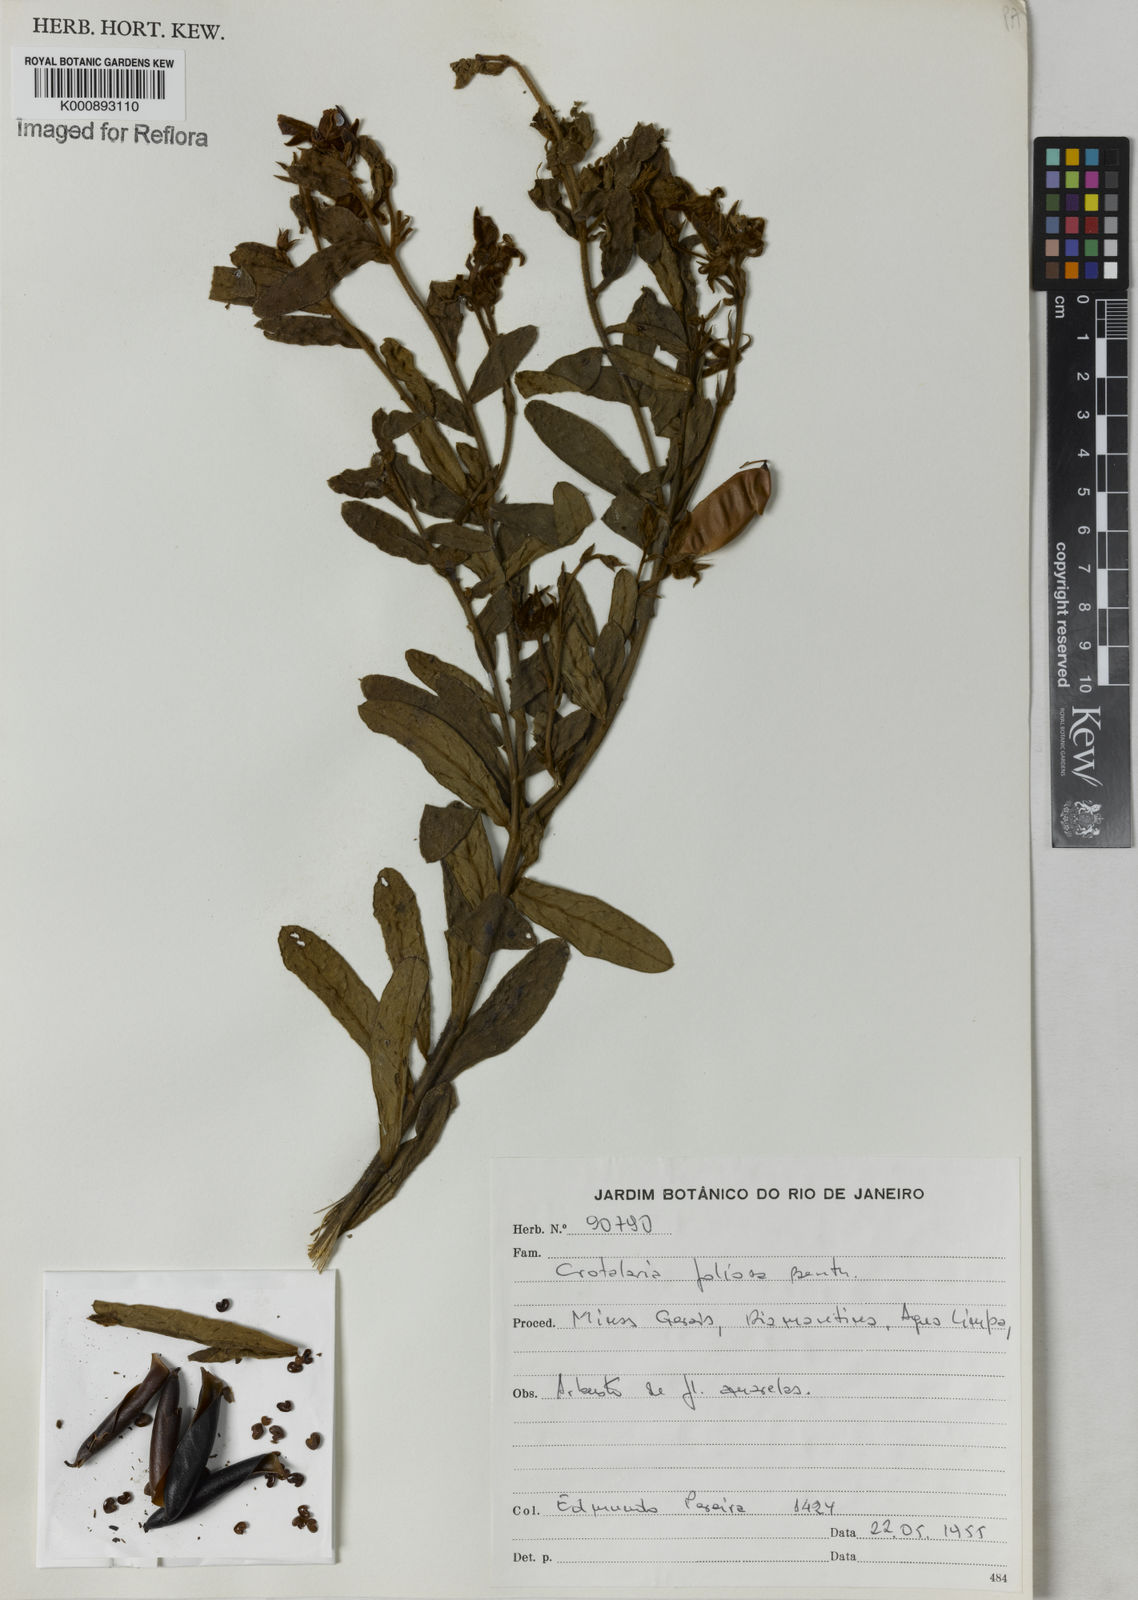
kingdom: Plantae
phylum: Tracheophyta
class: Magnoliopsida
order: Fabales
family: Fabaceae
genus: Crotalaria
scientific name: Crotalaria martiana
